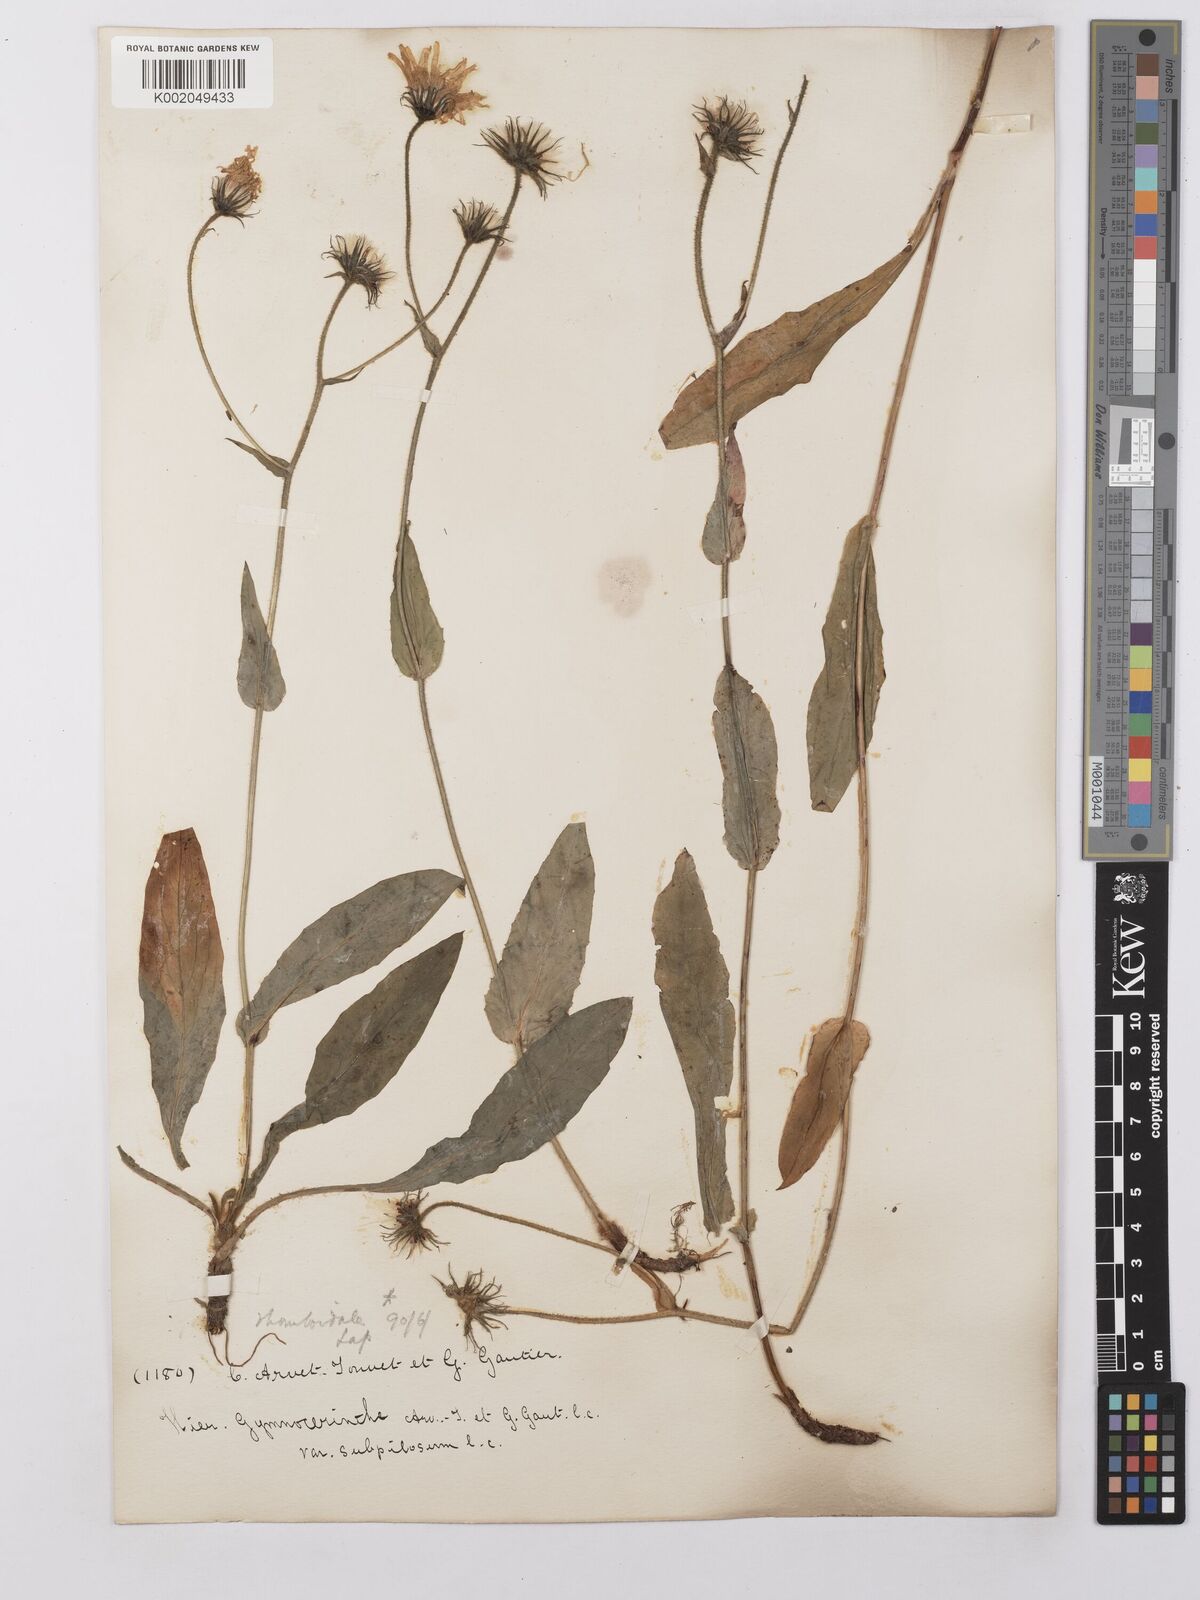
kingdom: Plantae
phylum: Tracheophyta
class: Magnoliopsida
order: Asterales
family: Asteraceae
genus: Hieracium
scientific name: Hieracium cerinthoides
